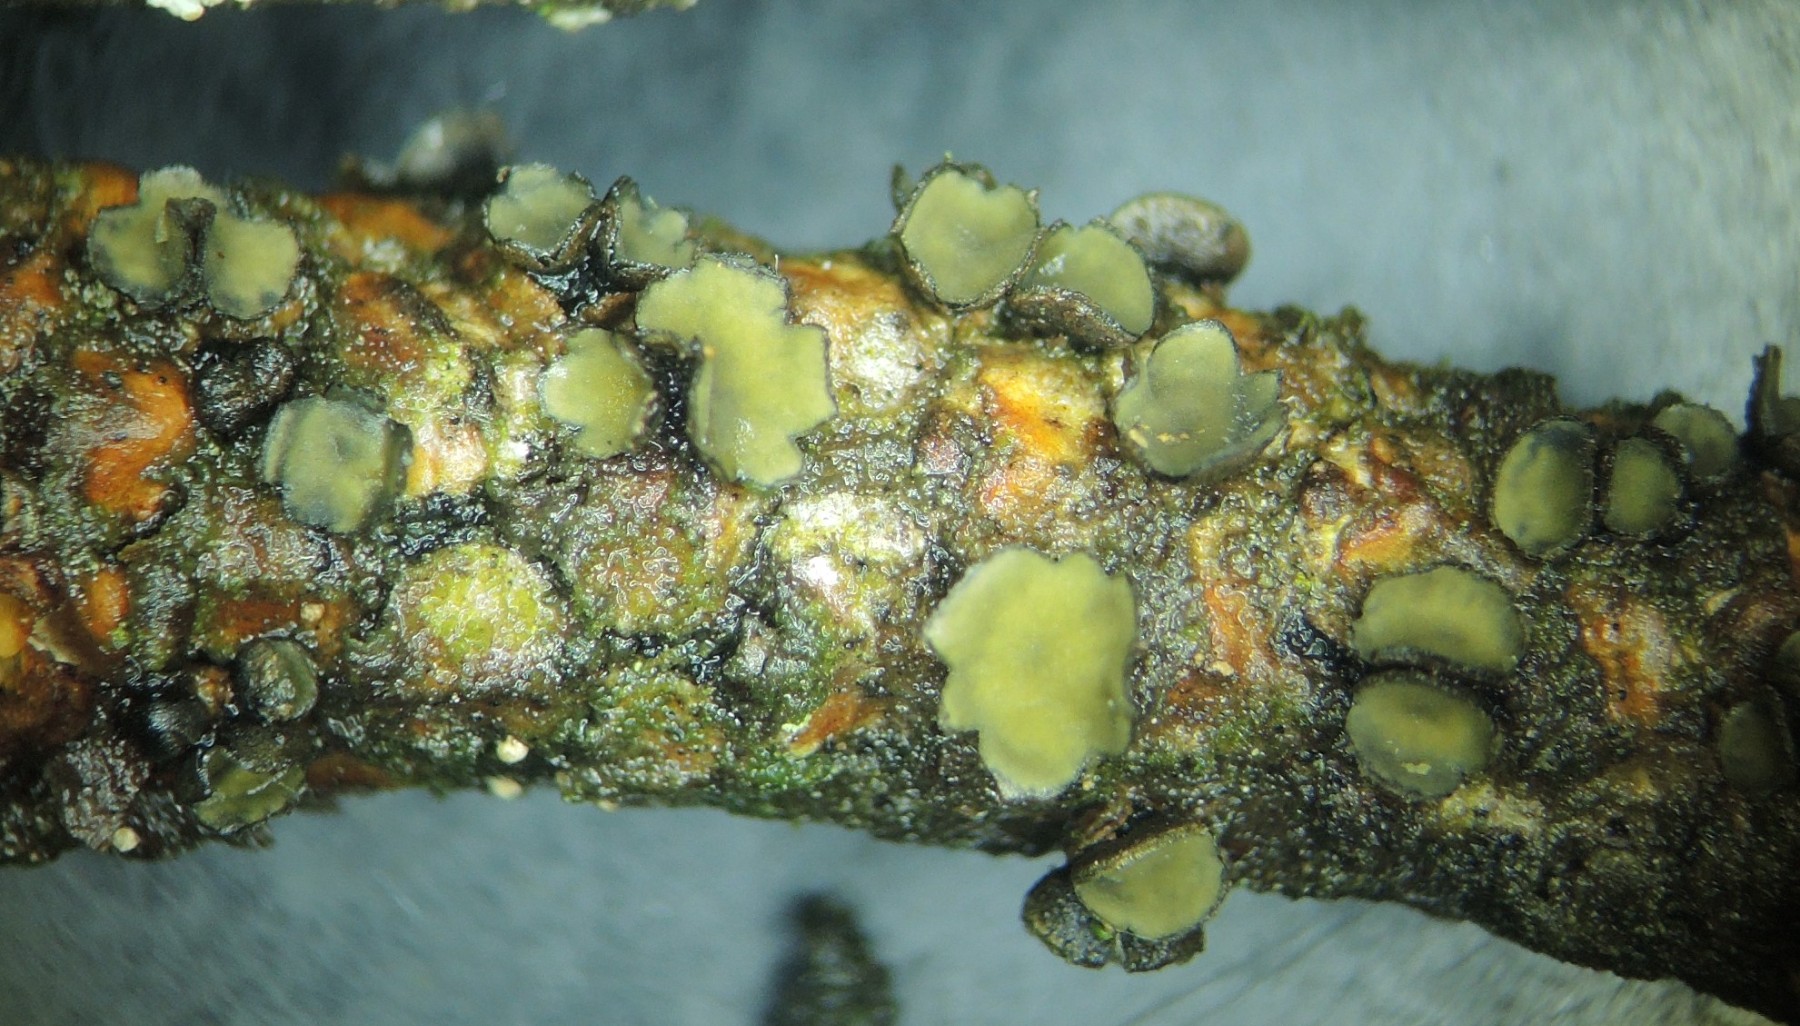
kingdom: Fungi
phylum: Ascomycota
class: Leotiomycetes
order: Helotiales
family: Cenangiaceae
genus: Cenangium
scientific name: Cenangium ferruginosum
